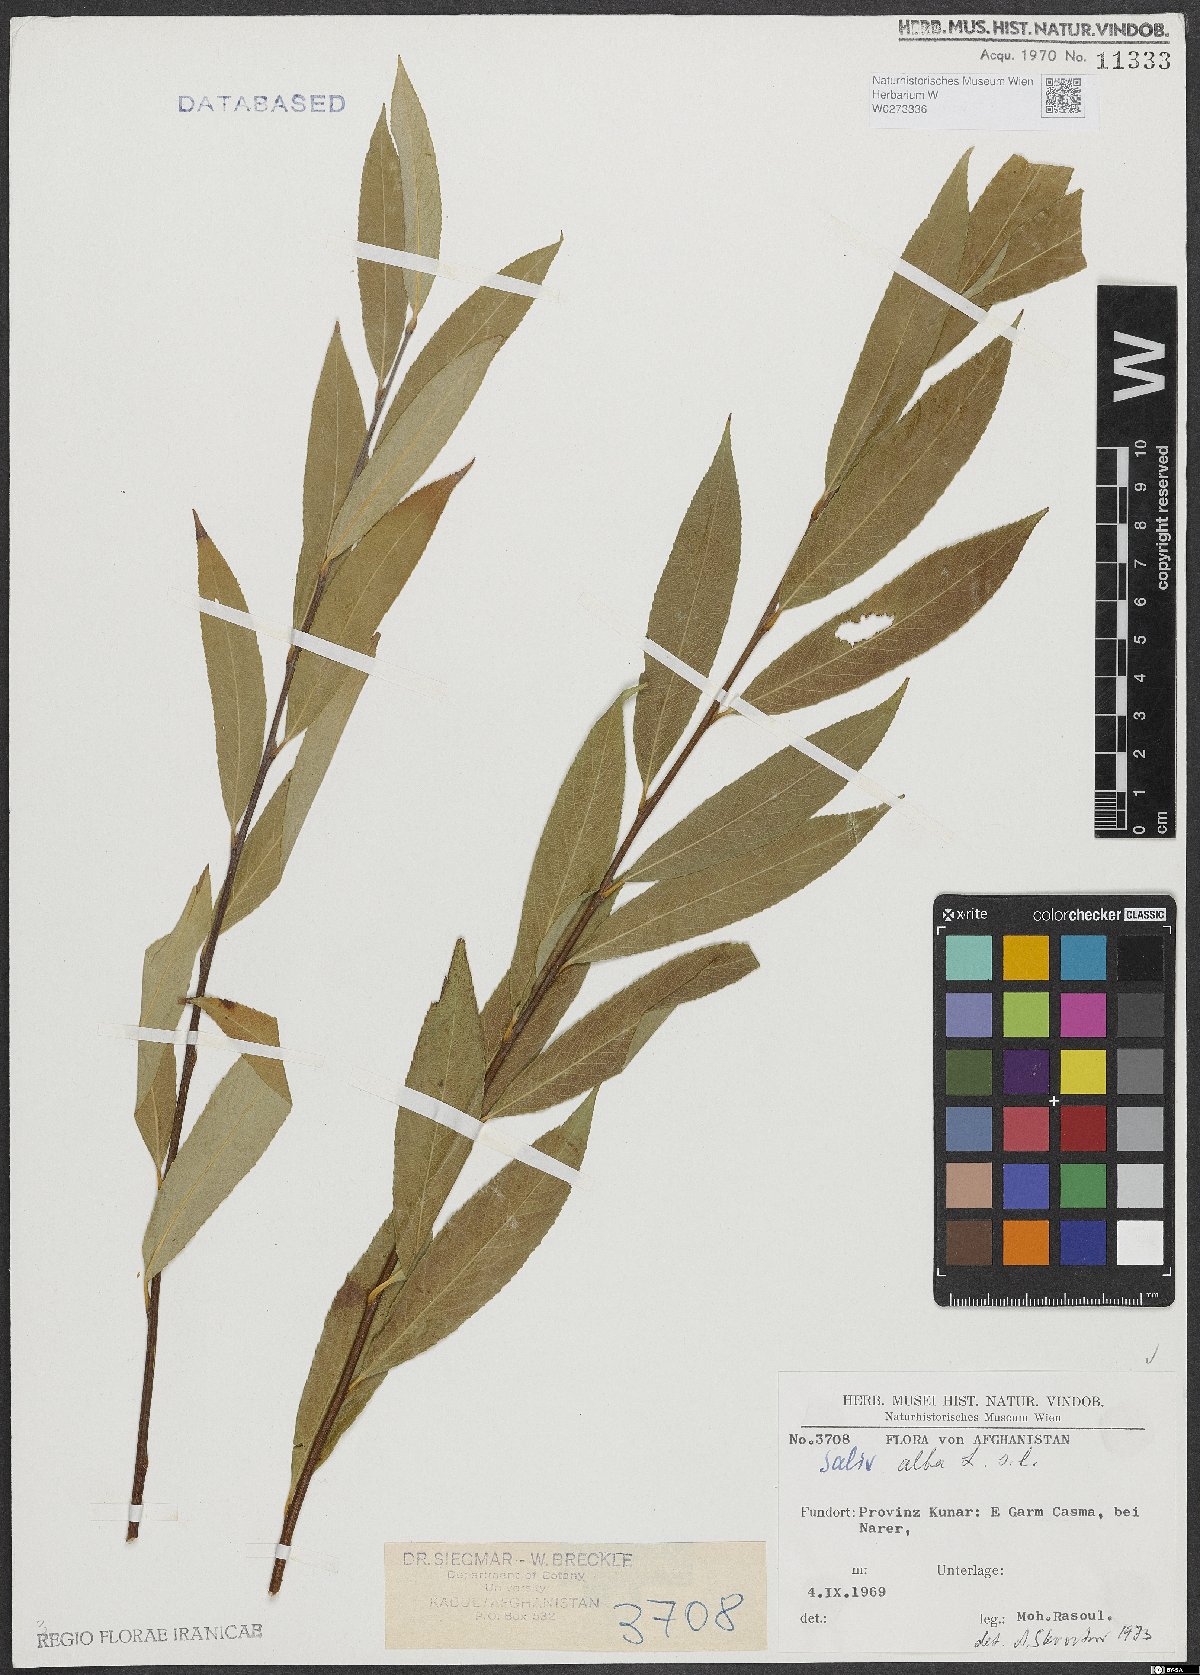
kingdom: Plantae
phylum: Tracheophyta
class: Magnoliopsida
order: Malpighiales
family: Salicaceae
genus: Salix
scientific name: Salix alba
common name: White willow
